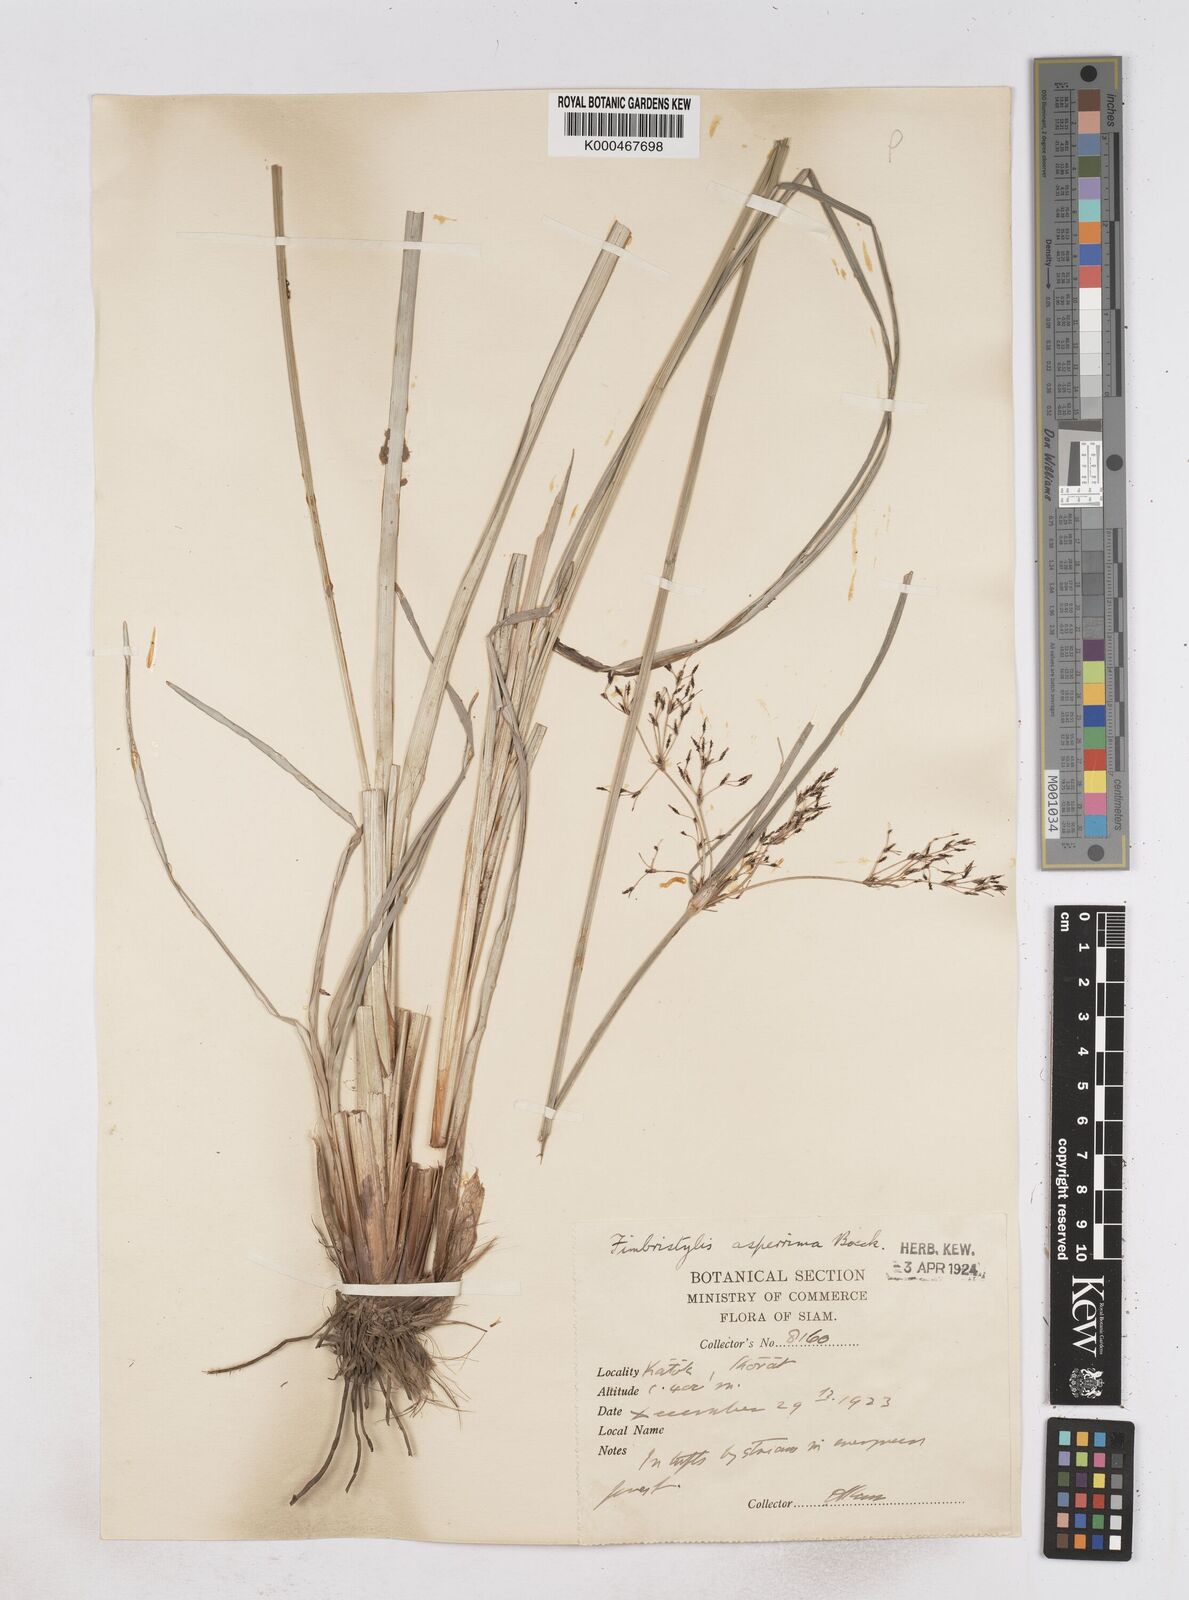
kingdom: Plantae
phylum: Tracheophyta
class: Liliopsida
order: Poales
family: Cyperaceae
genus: Fimbristylis
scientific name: Fimbristylis dura
